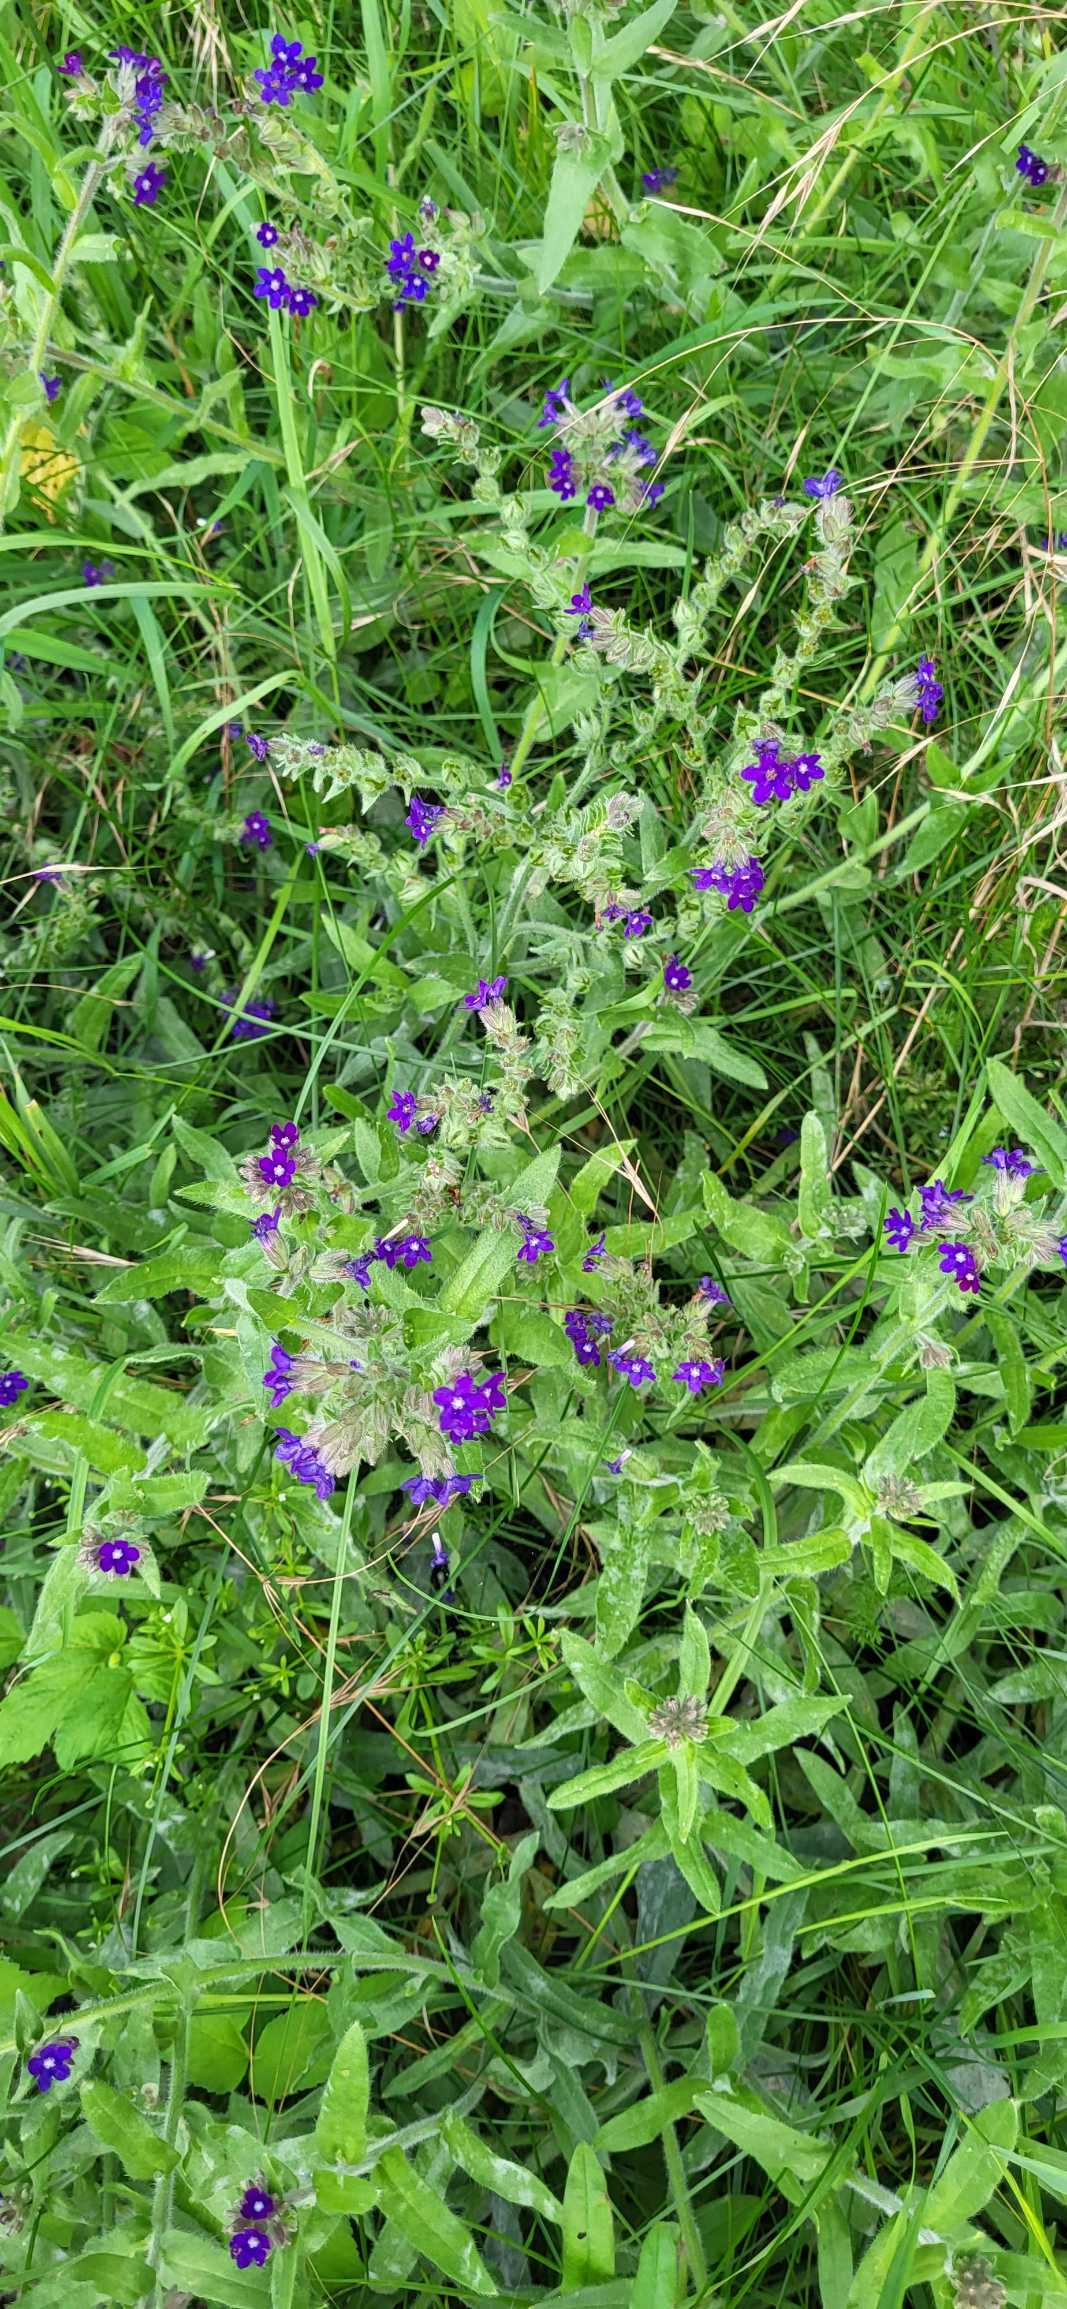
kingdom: Plantae
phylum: Tracheophyta
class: Magnoliopsida
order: Boraginales
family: Boraginaceae
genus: Anchusa
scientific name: Anchusa officinalis
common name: Læge-oksetunge
